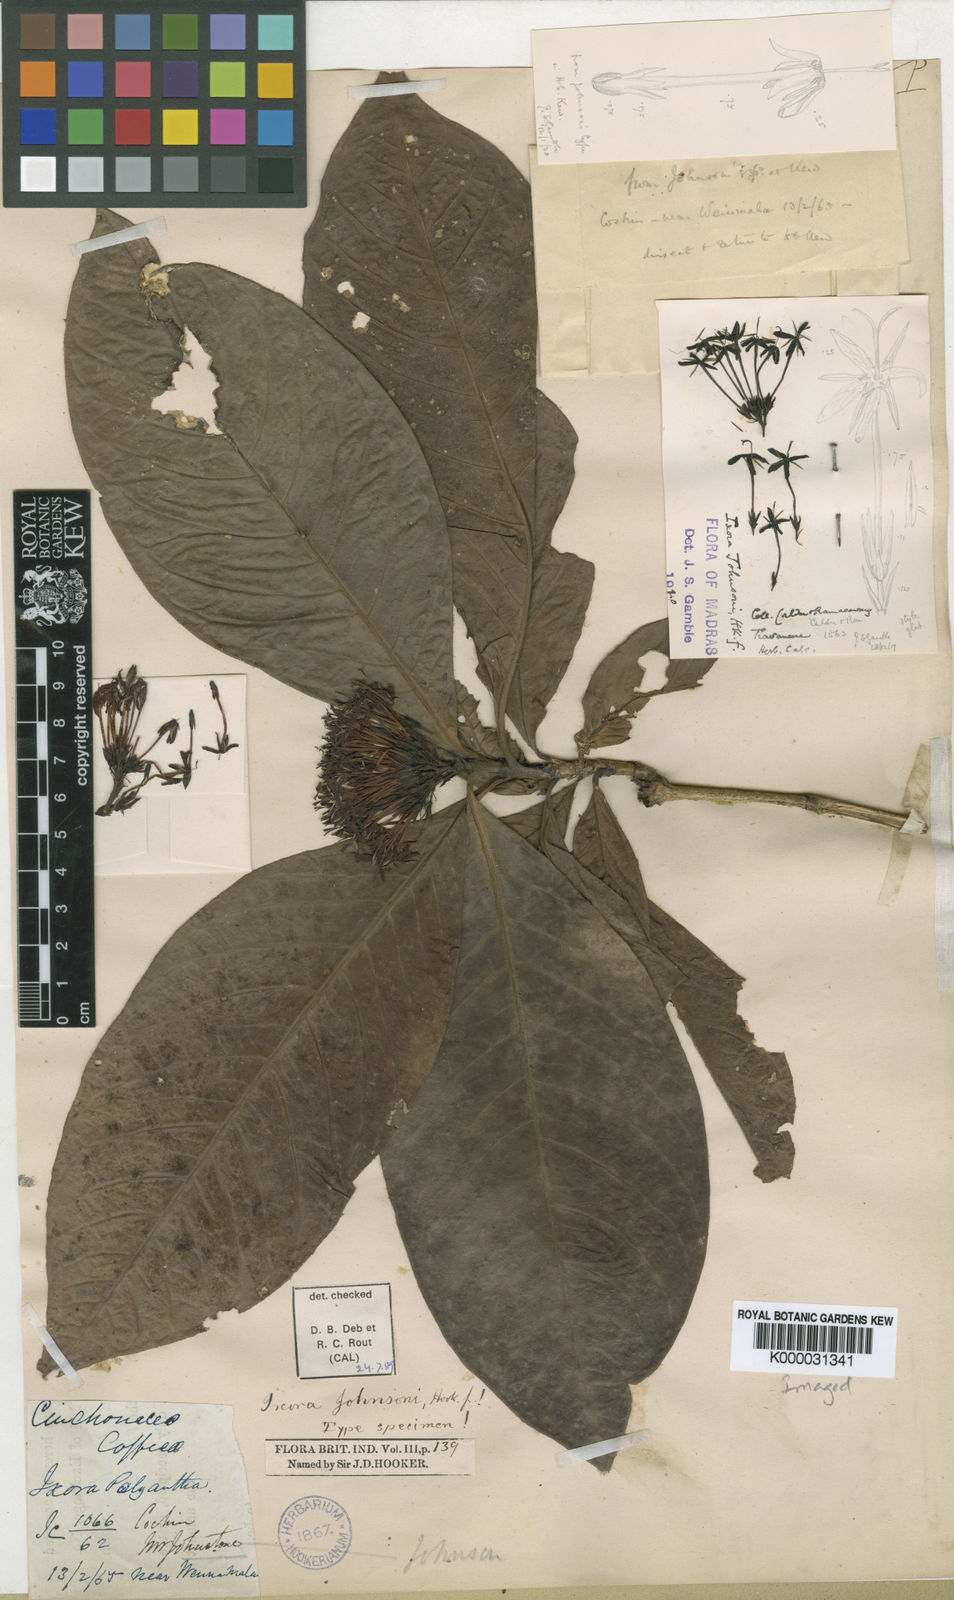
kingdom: Plantae
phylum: Tracheophyta
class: Magnoliopsida
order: Gentianales
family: Rubiaceae
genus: Ixora
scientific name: Ixora johnsonii
